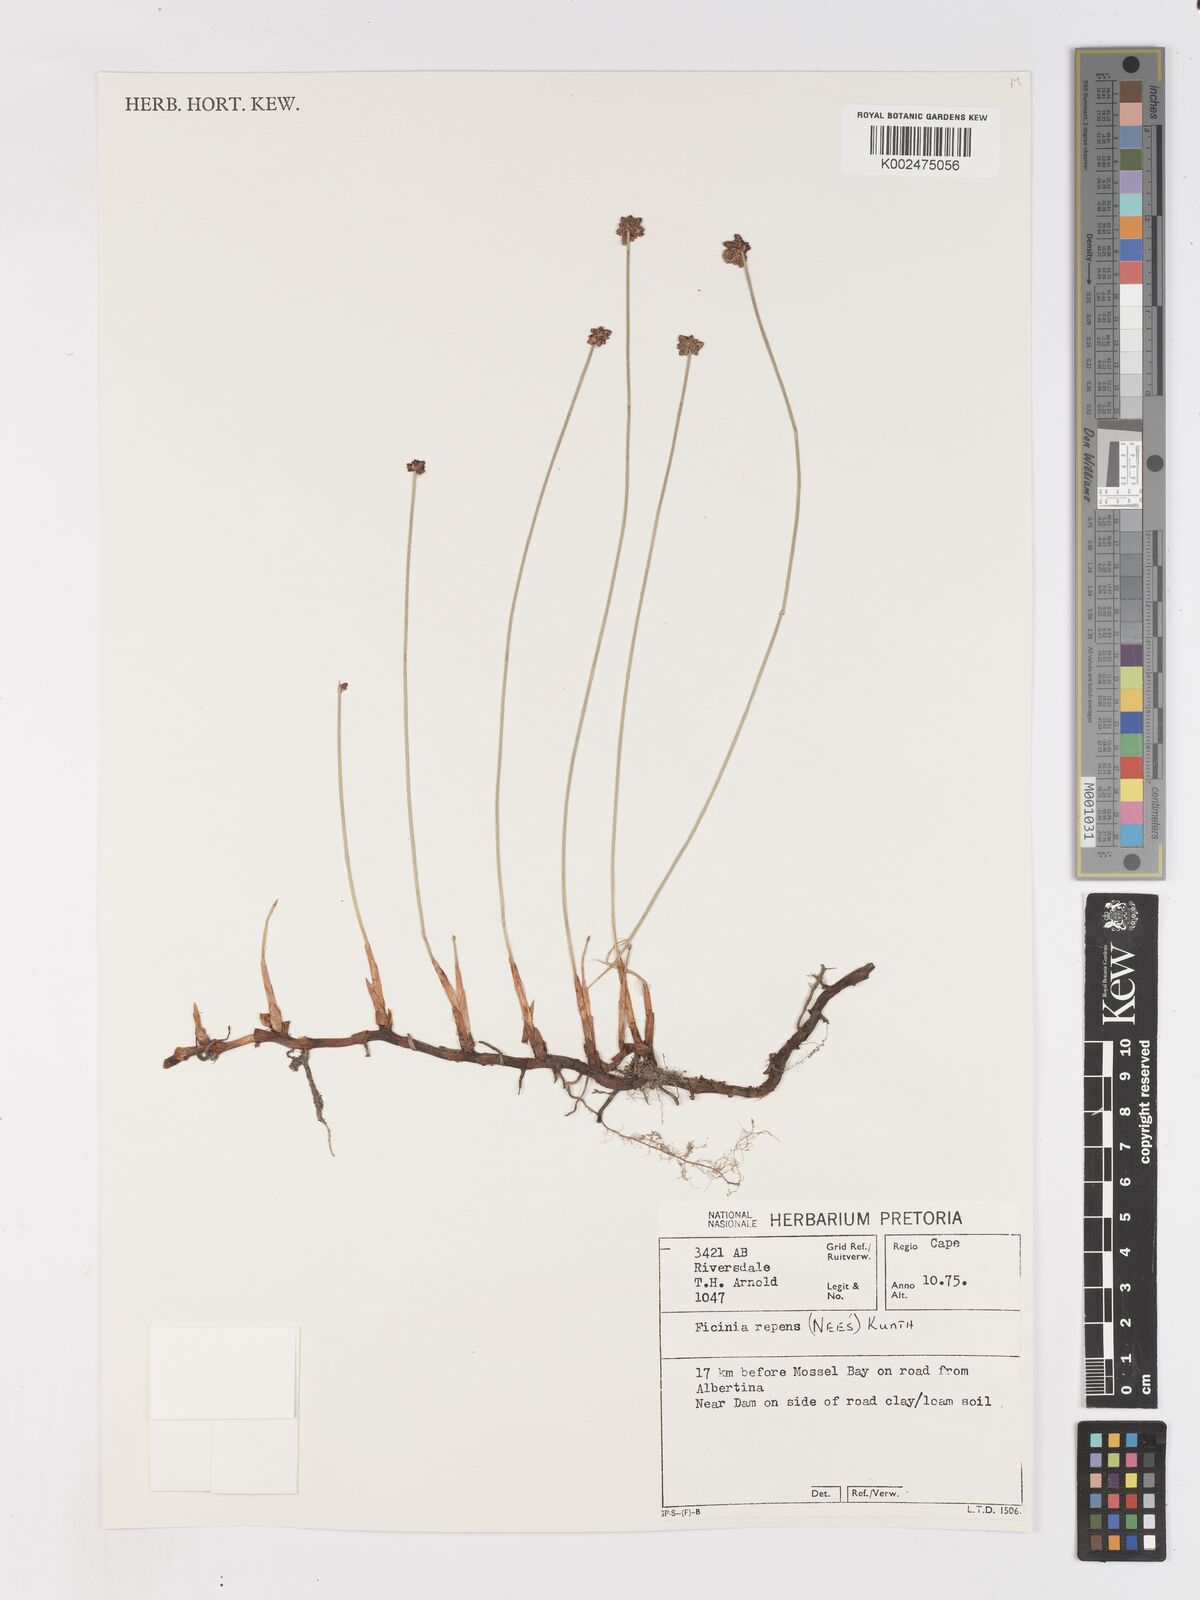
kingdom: Plantae
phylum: Tracheophyta
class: Liliopsida
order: Poales
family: Cyperaceae
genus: Ficinia
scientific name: Ficinia repens
